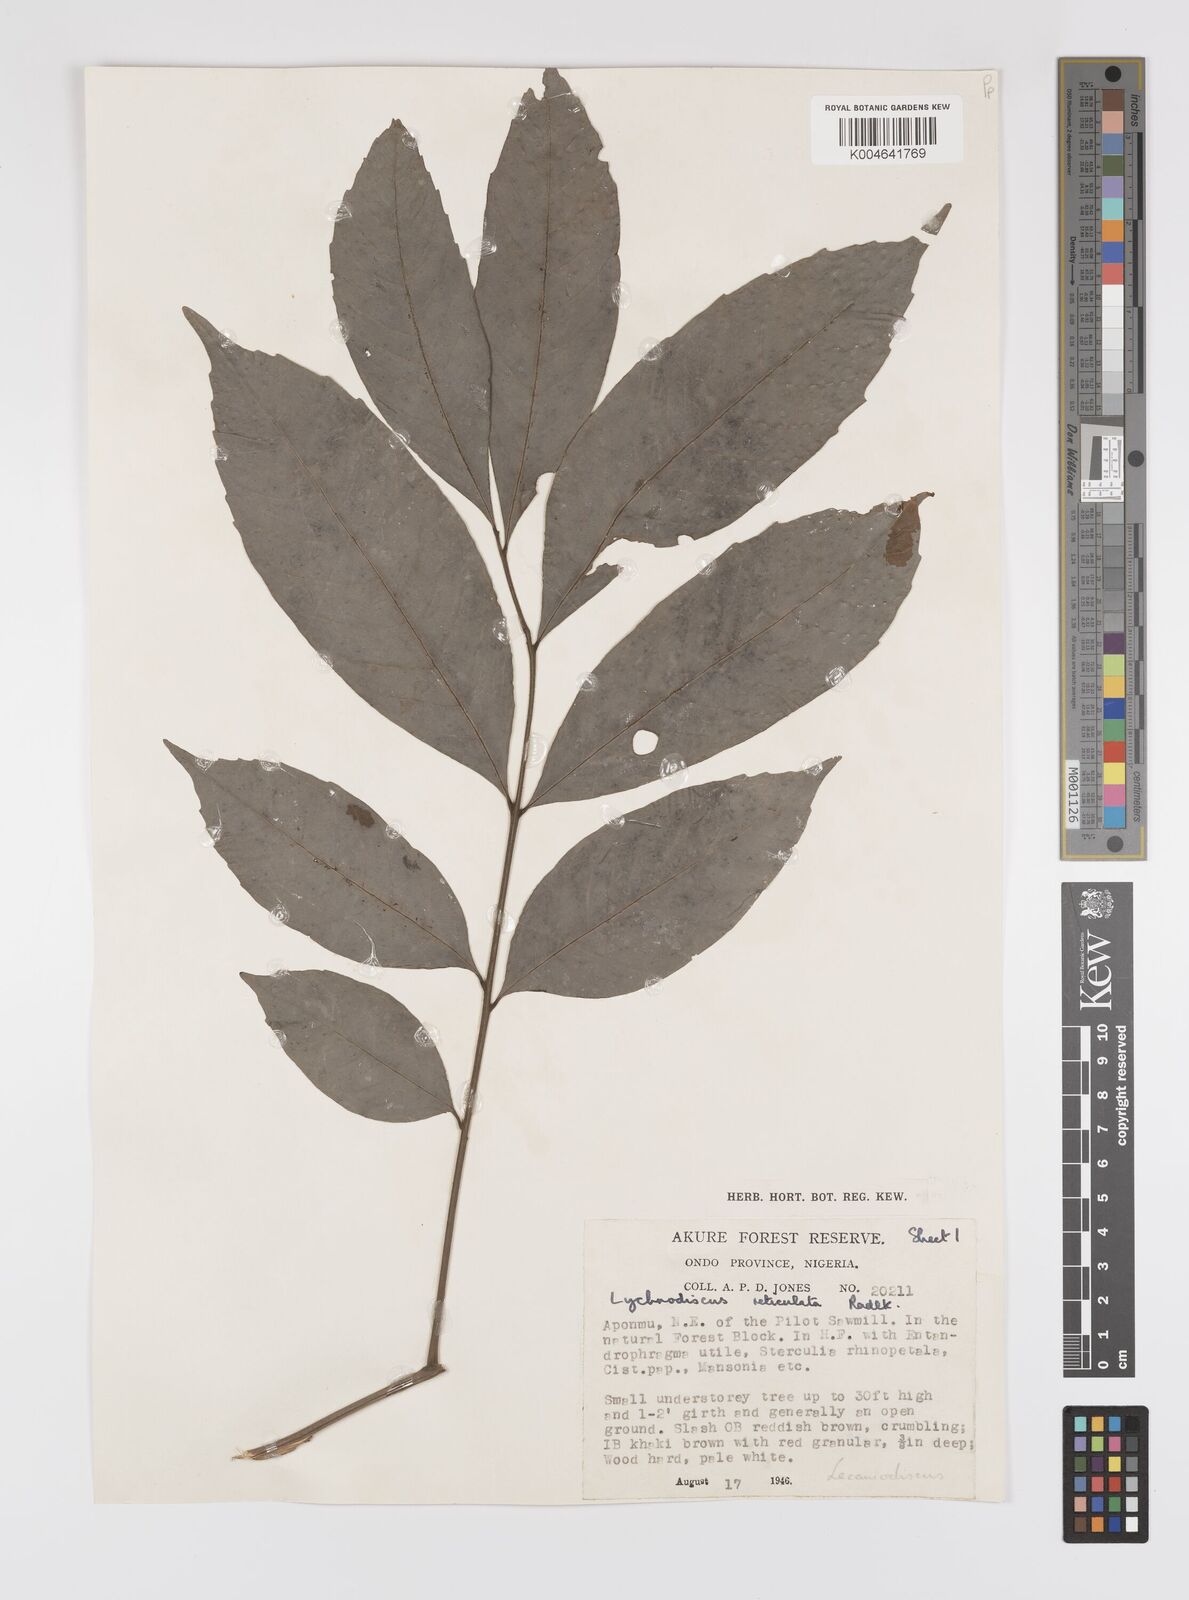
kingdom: Plantae
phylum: Tracheophyta
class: Magnoliopsida
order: Sapindales
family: Sapindaceae
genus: Lychnodiscus
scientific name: Lychnodiscus reticulatus
